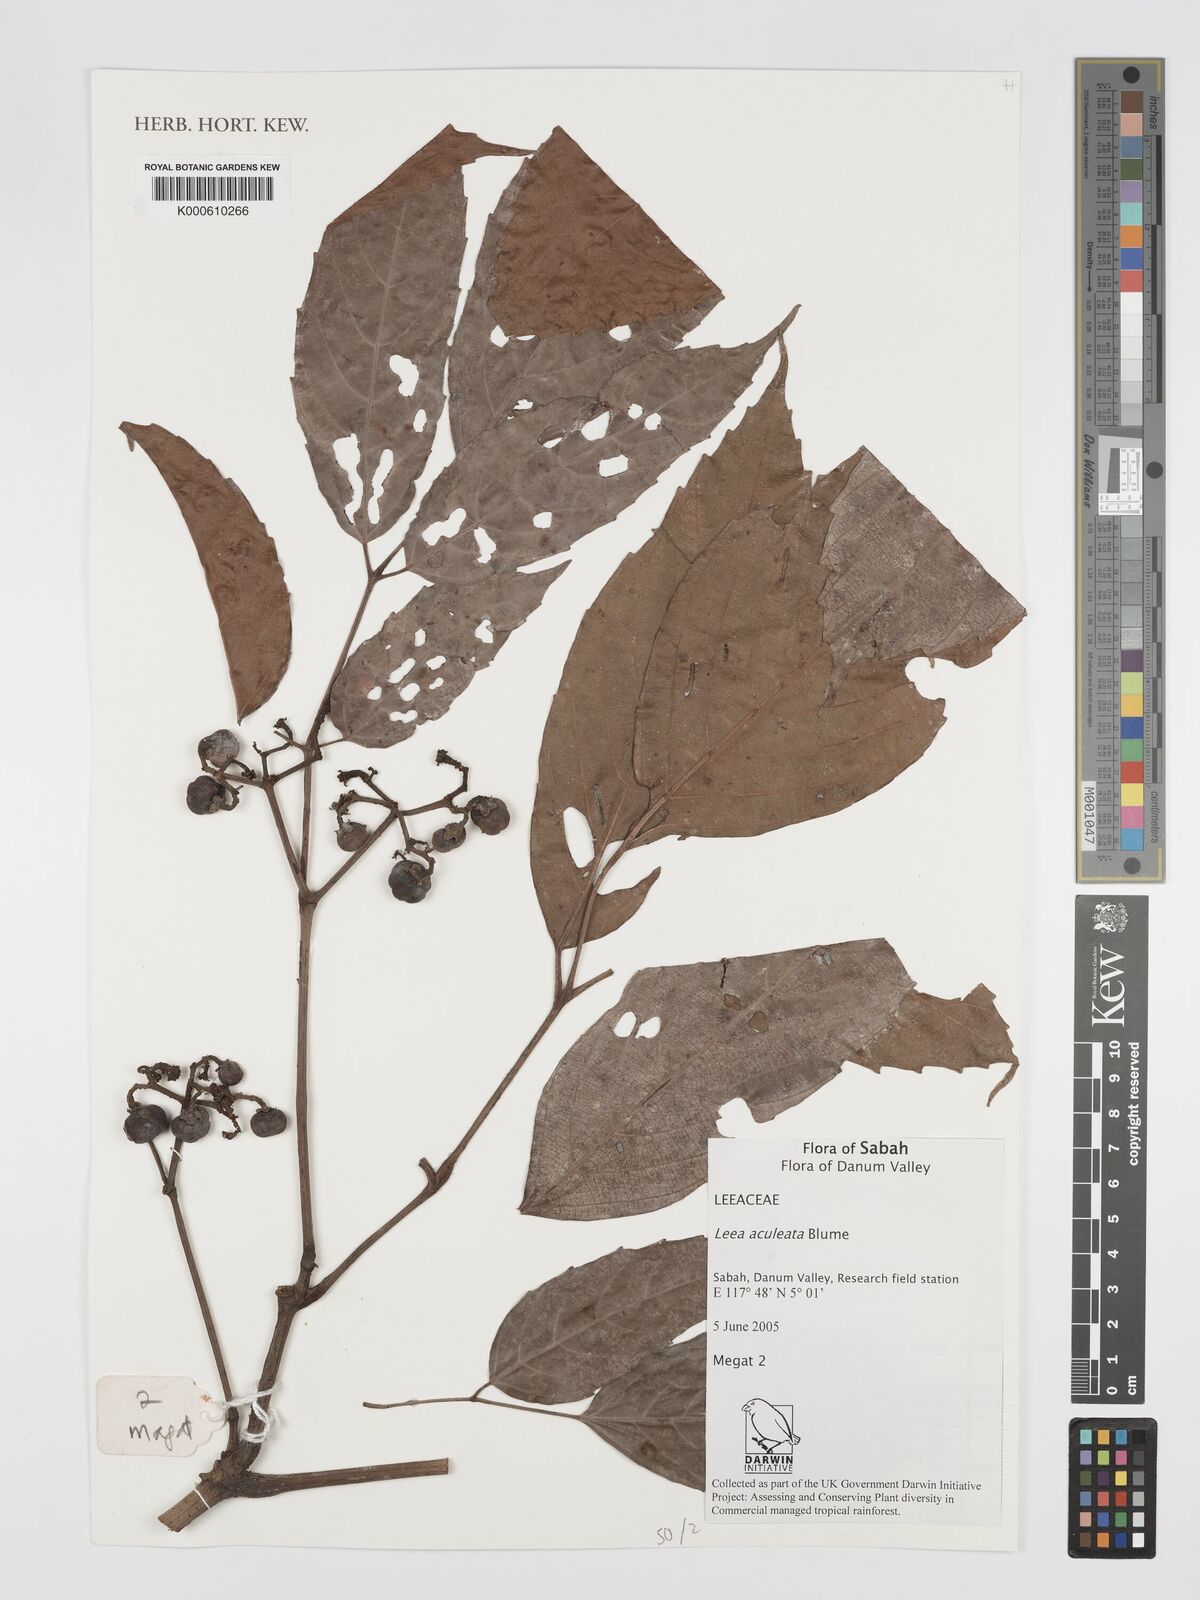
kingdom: Plantae
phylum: Tracheophyta
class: Magnoliopsida
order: Vitales
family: Vitaceae
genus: Leea
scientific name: Leea aculeata
